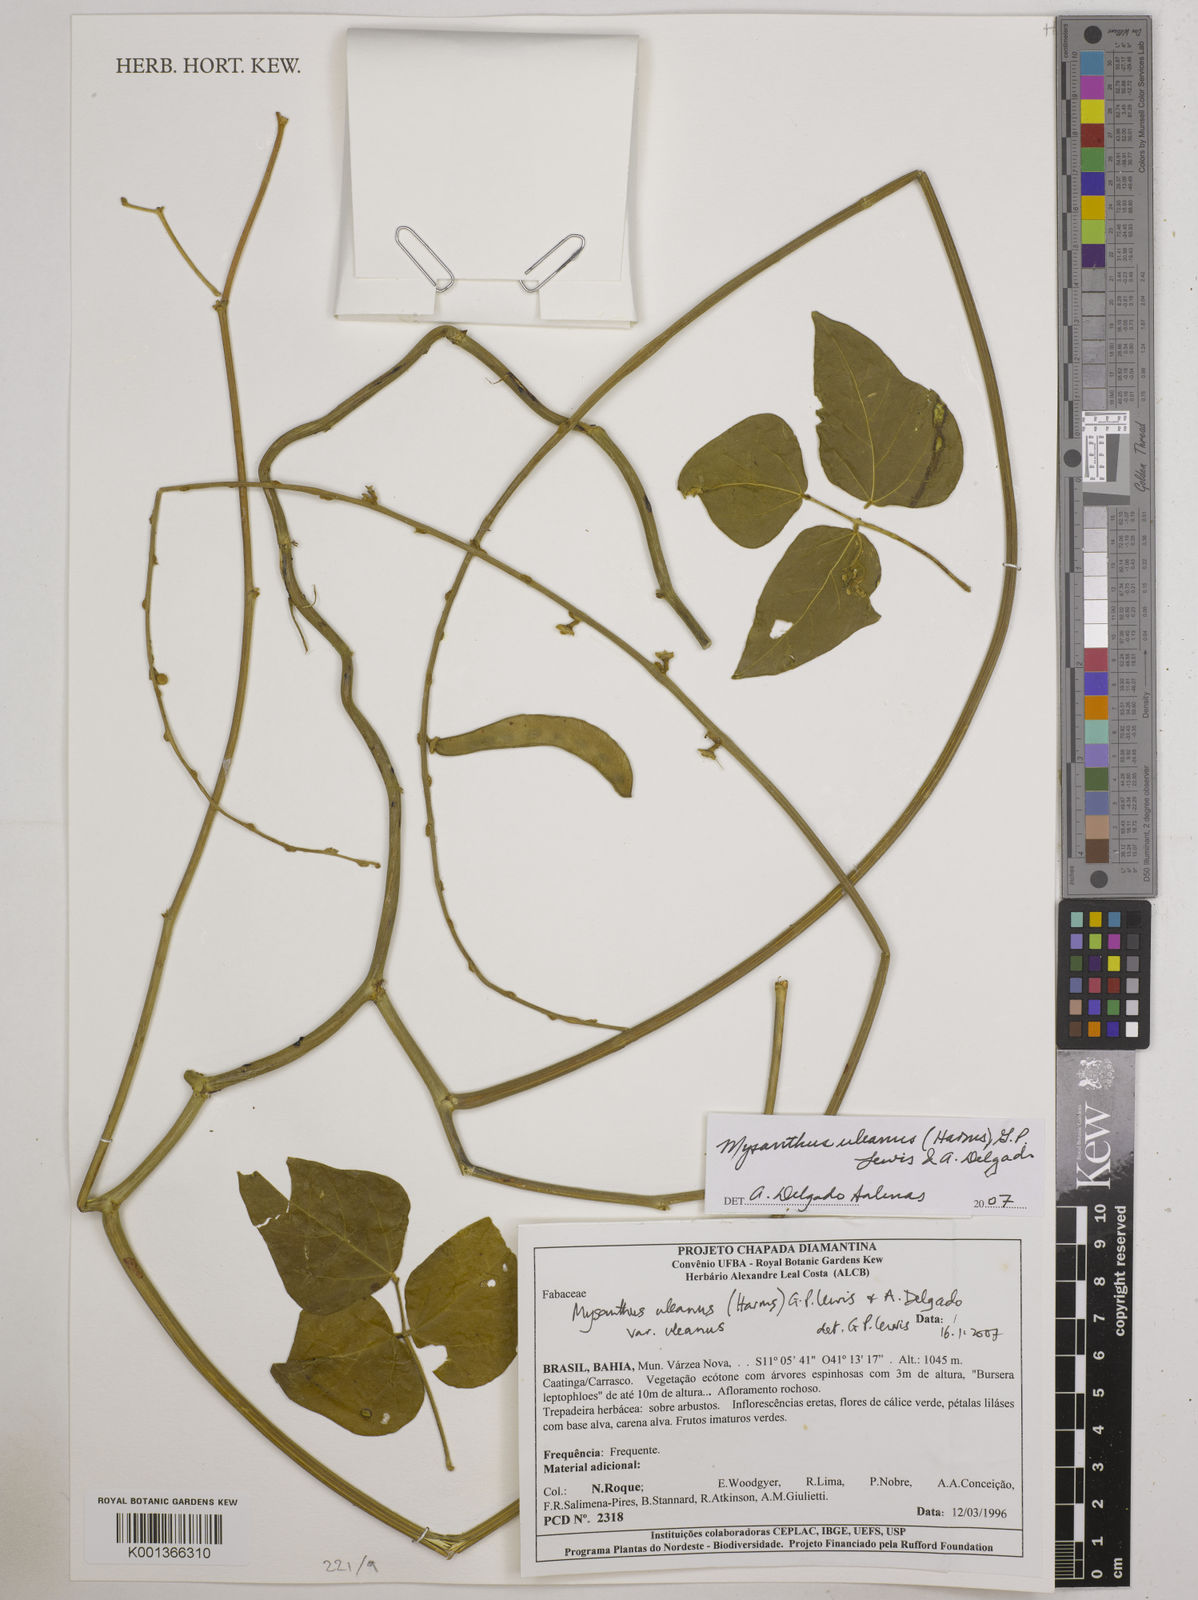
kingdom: Plantae
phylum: Tracheophyta
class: Magnoliopsida
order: Fabales
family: Fabaceae
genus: Mysanthus
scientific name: Mysanthus uleanus
